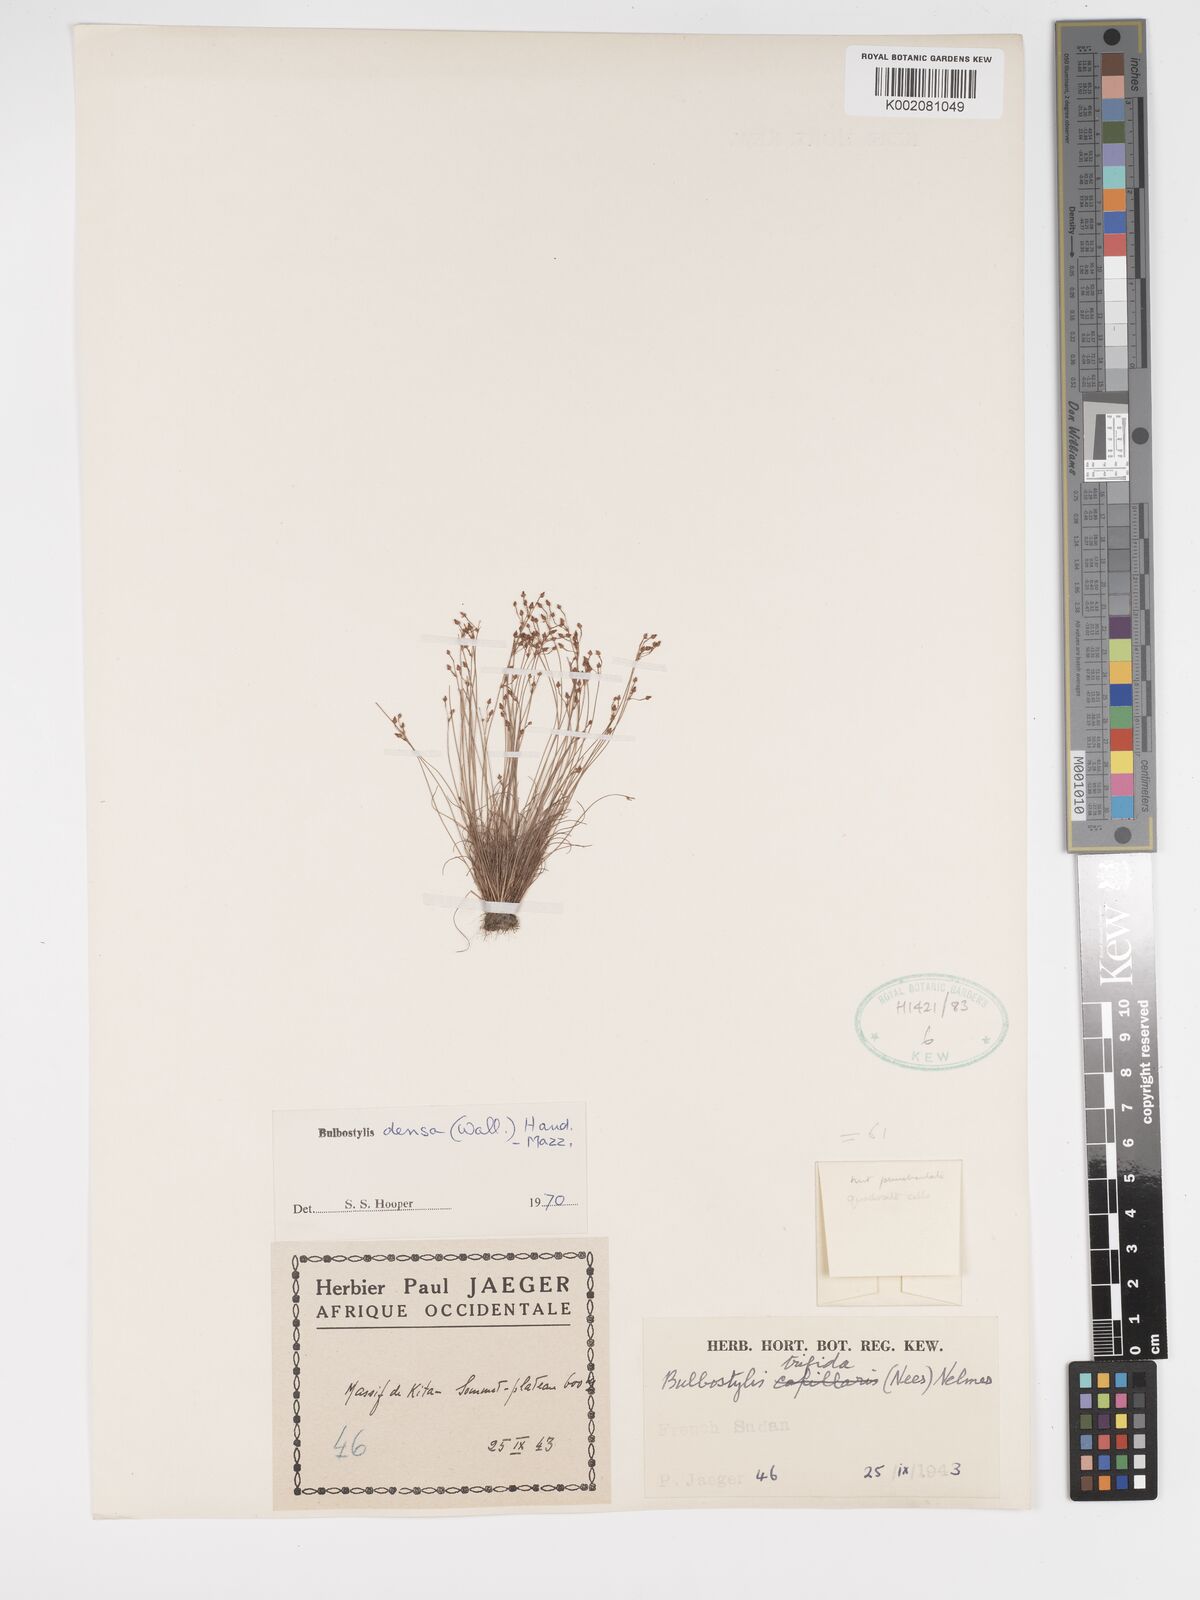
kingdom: Plantae
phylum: Tracheophyta
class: Liliopsida
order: Poales
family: Cyperaceae
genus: Bulbostylis
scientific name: Bulbostylis densa
